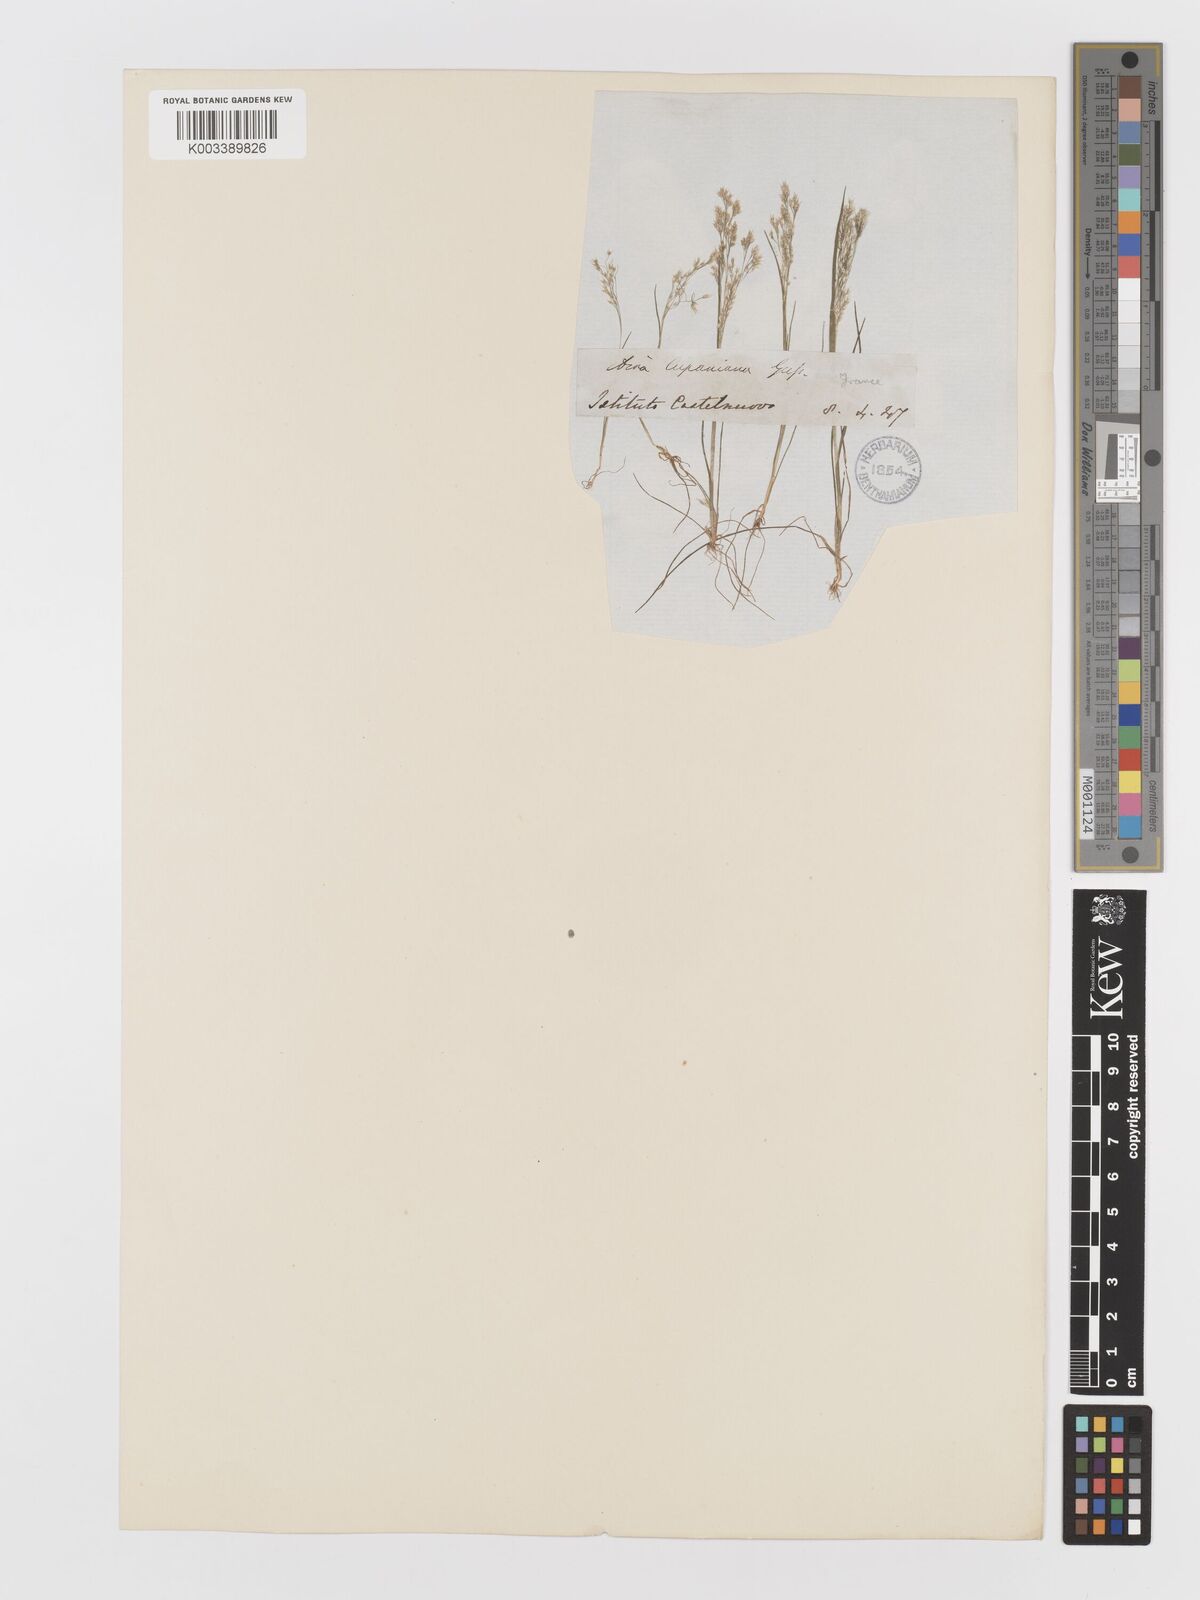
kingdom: Plantae
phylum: Tracheophyta
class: Liliopsida
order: Poales
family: Poaceae
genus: Aira
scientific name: Aira elegans
